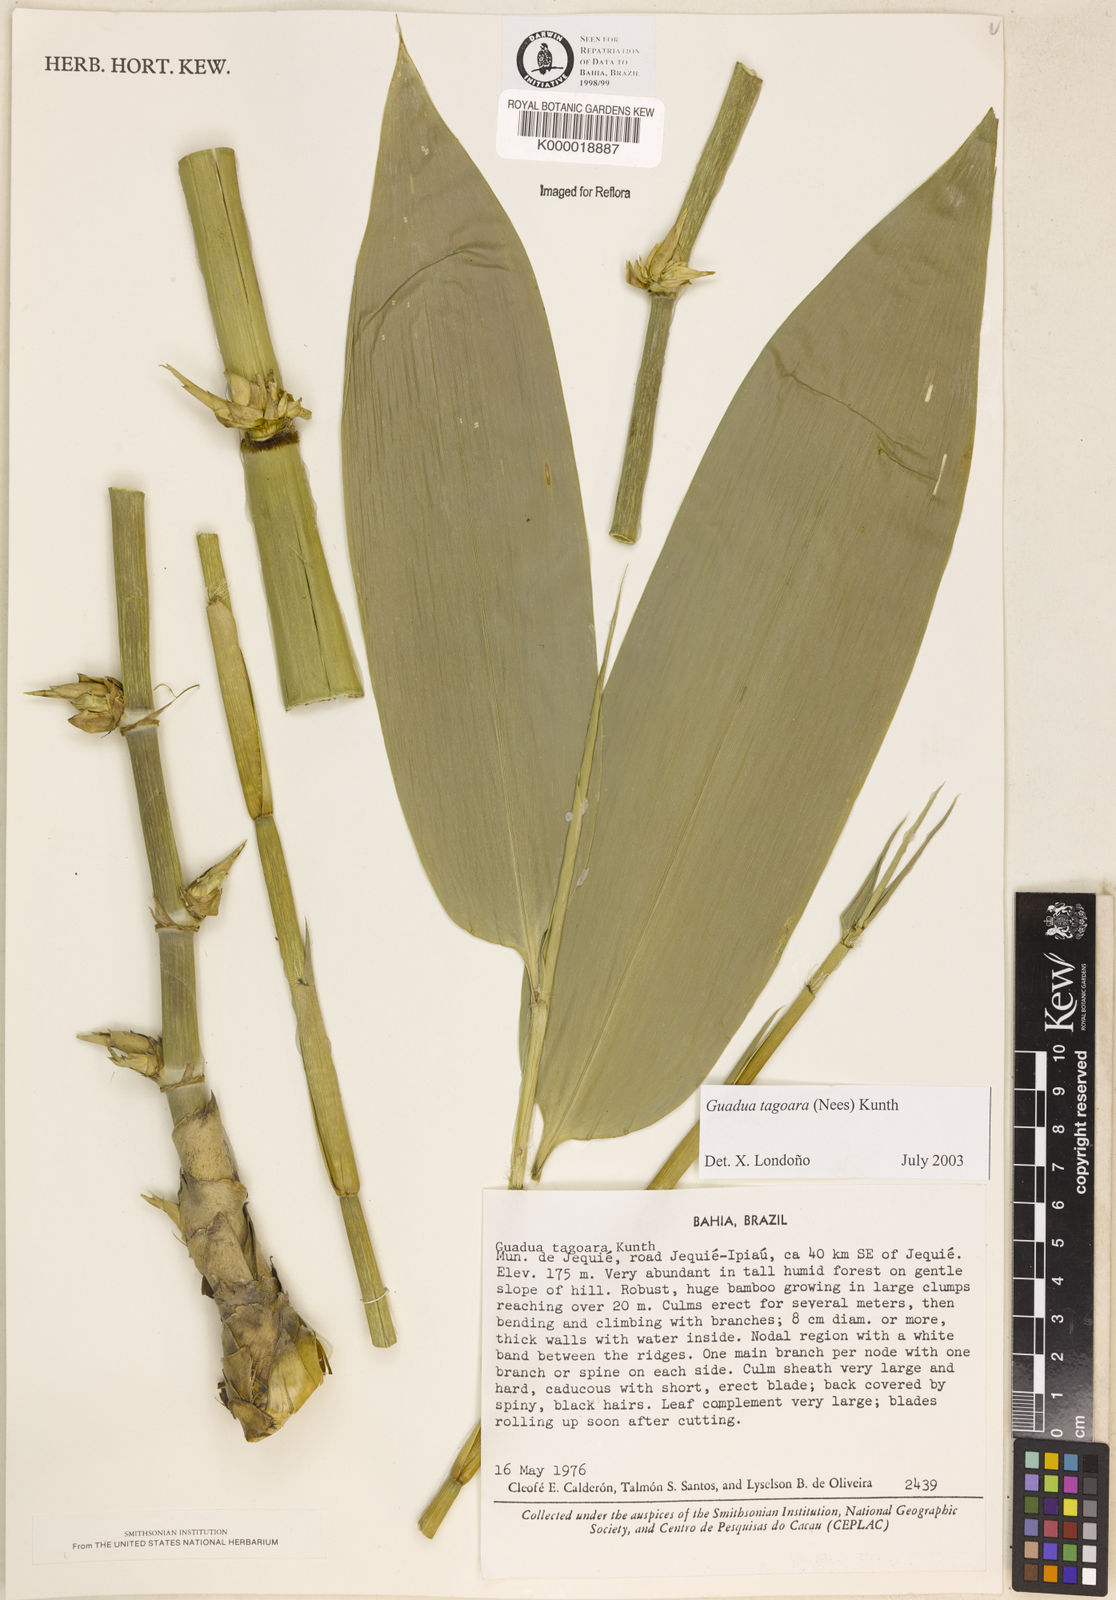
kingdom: Plantae
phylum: Tracheophyta
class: Liliopsida
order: Poales
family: Poaceae
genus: Guadua
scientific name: Guadua tagoara
